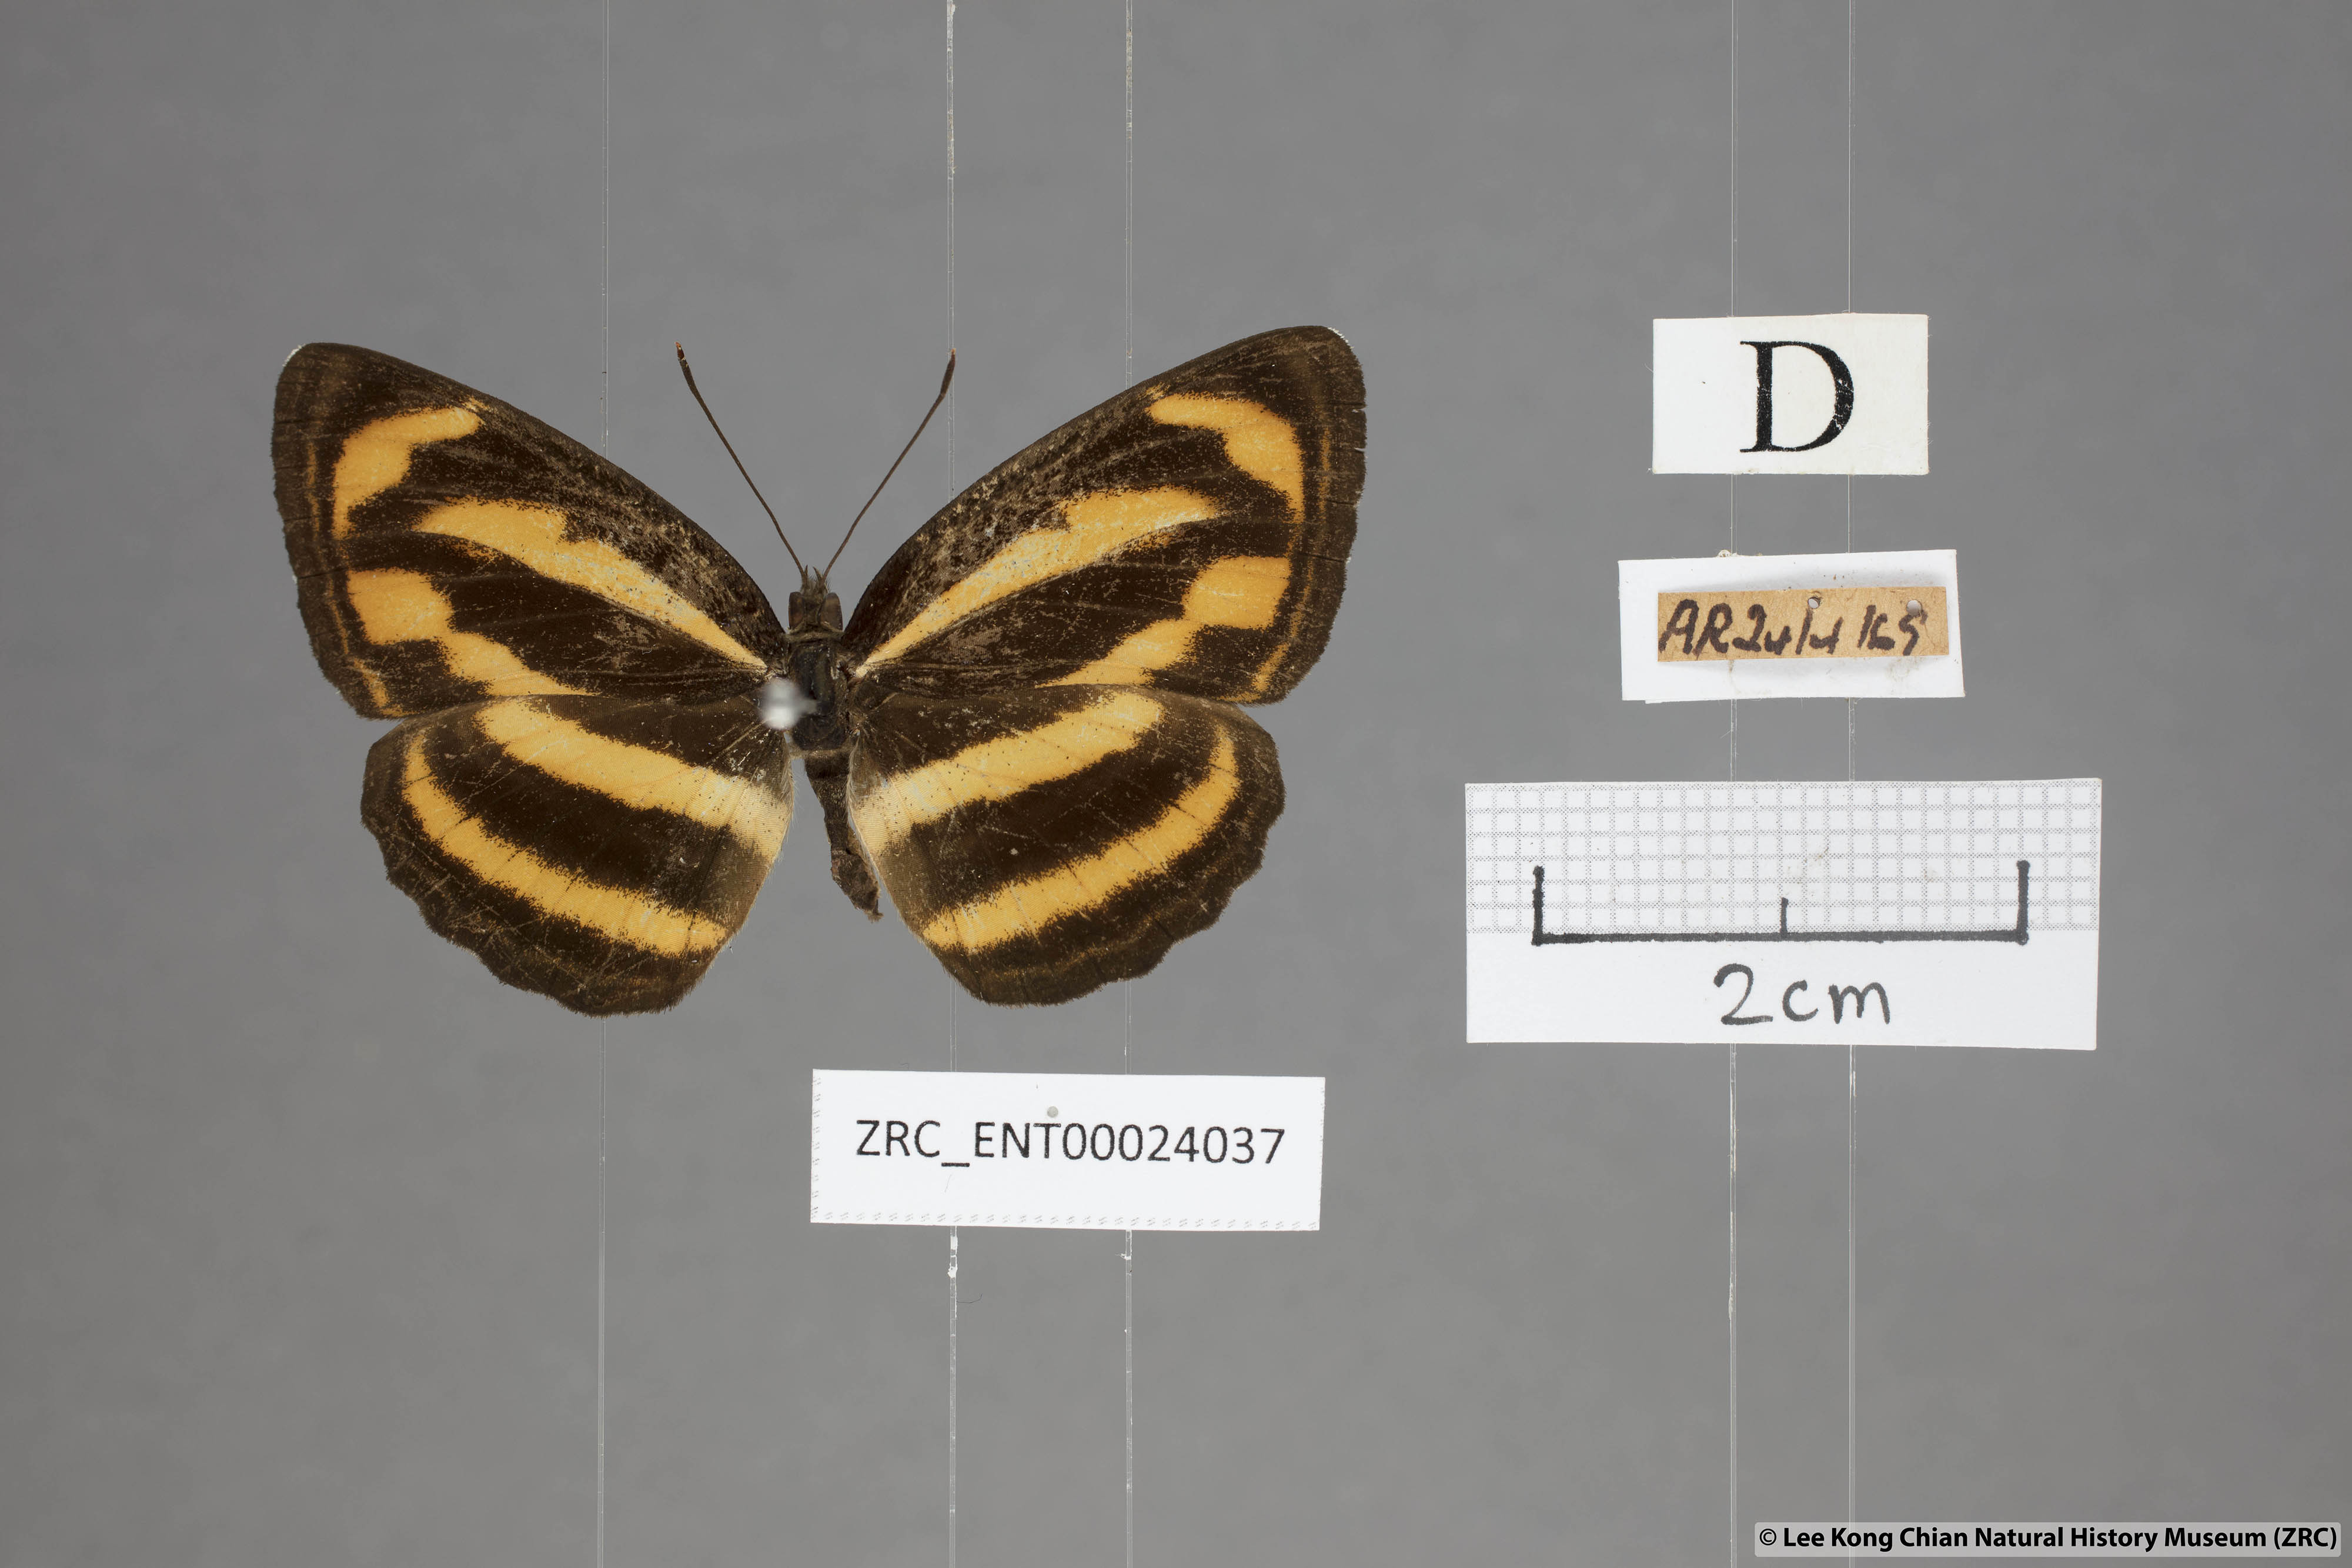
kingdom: Animalia
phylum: Arthropoda
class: Insecta
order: Lepidoptera
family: Nymphalidae
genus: Neptis
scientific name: Neptis miah
